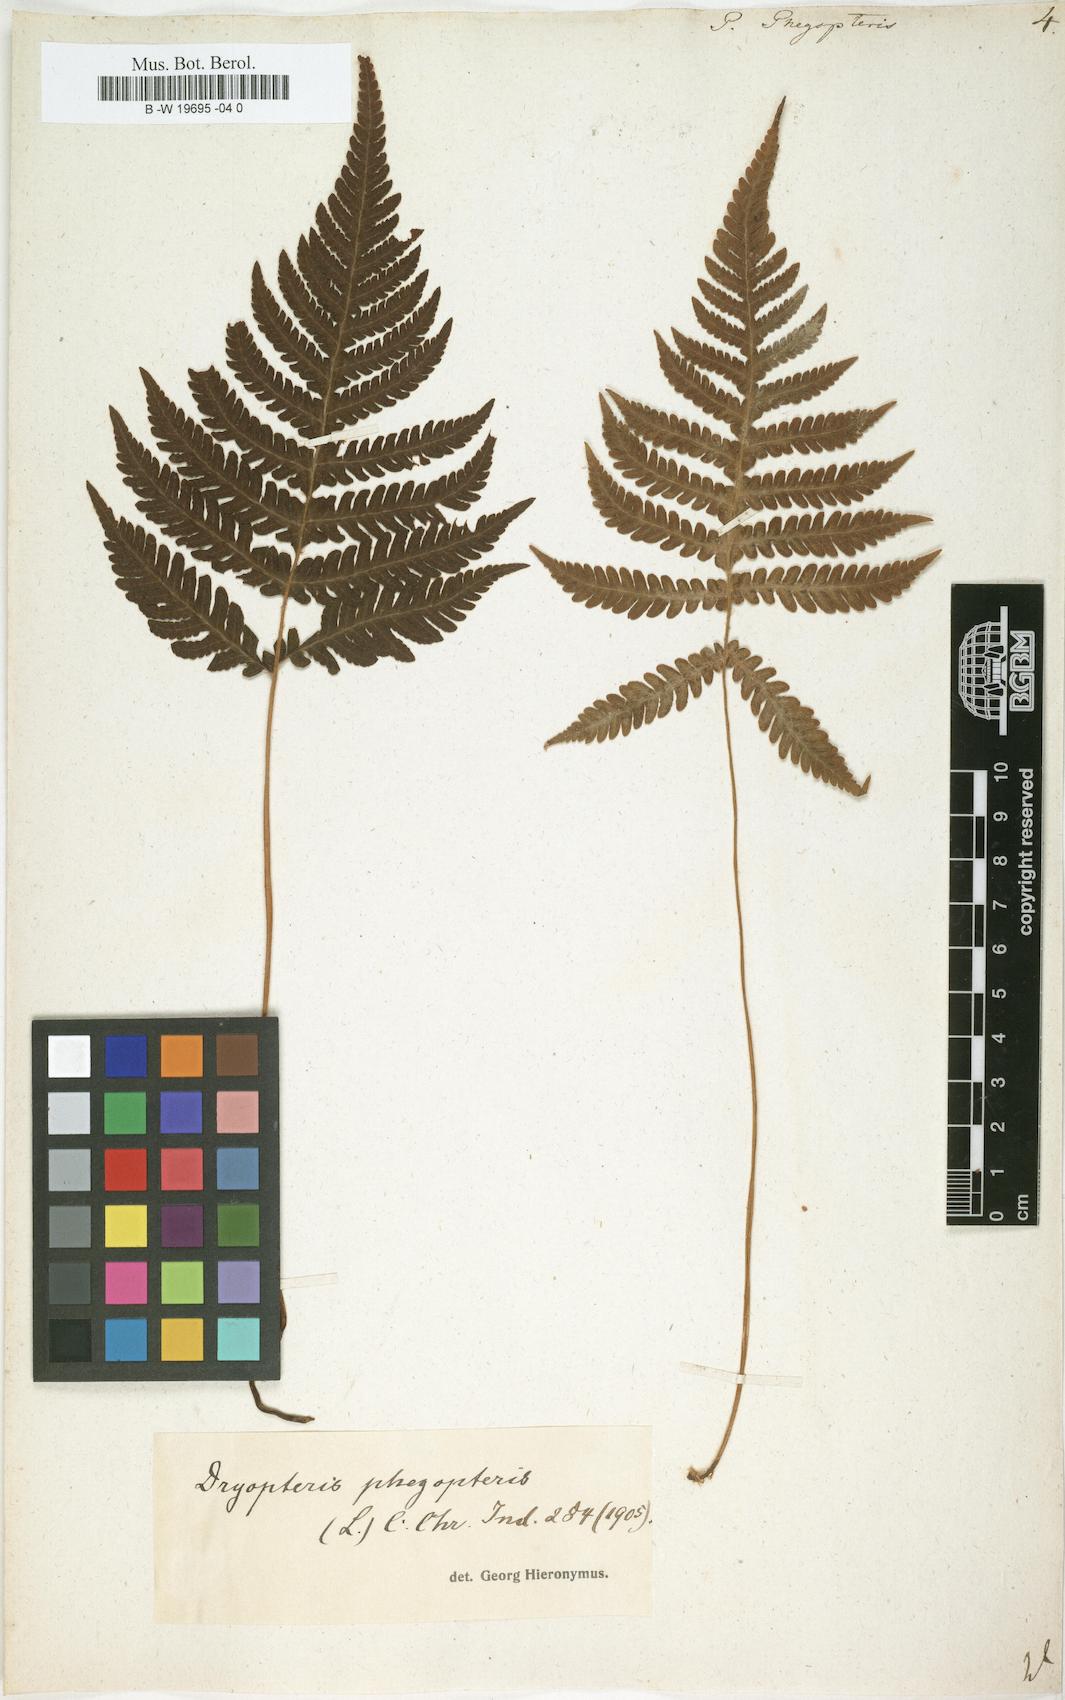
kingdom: Plantae
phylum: Tracheophyta
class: Polypodiopsida
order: Polypodiales
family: Thelypteridaceae
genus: Phegopteris
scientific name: Phegopteris connectilis
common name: Beech fern
